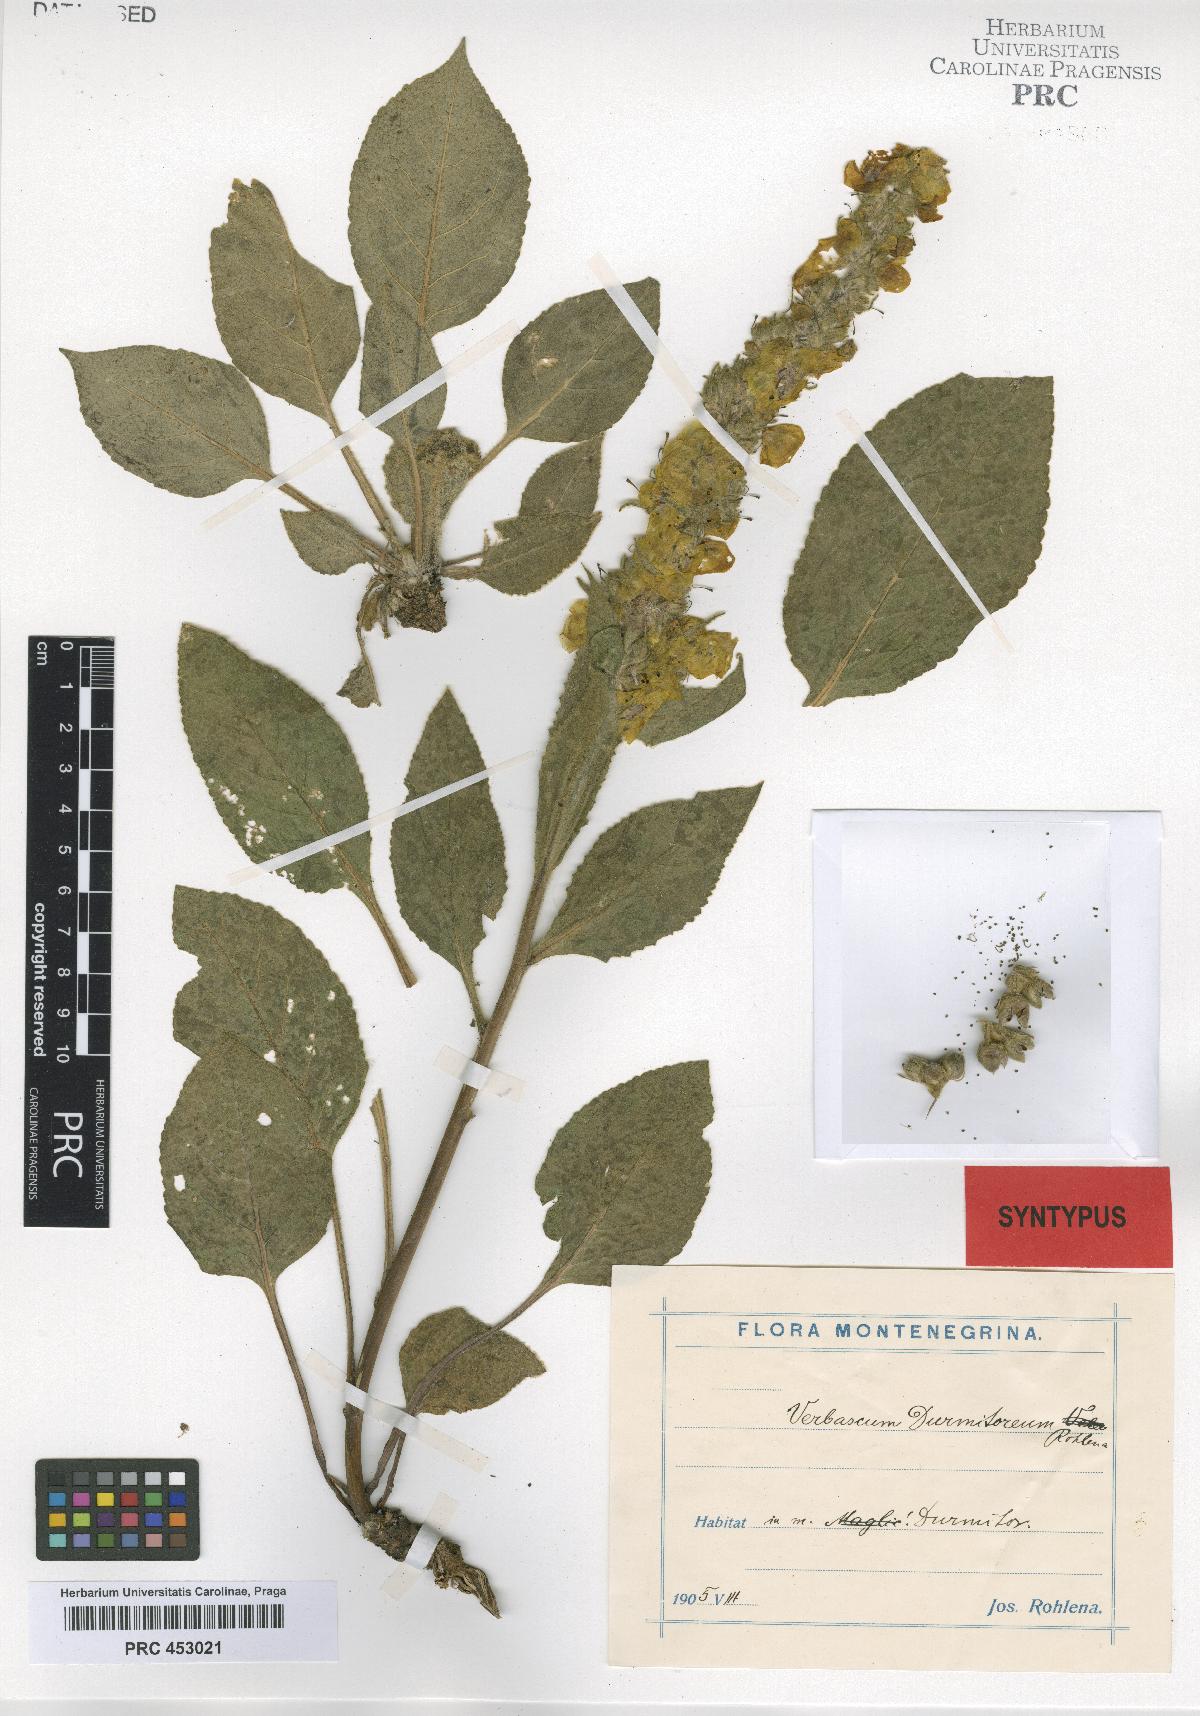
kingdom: Plantae
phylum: Tracheophyta
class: Magnoliopsida
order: Lamiales
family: Scrophulariaceae
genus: Verbascum
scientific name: Verbascum durmitoreum
